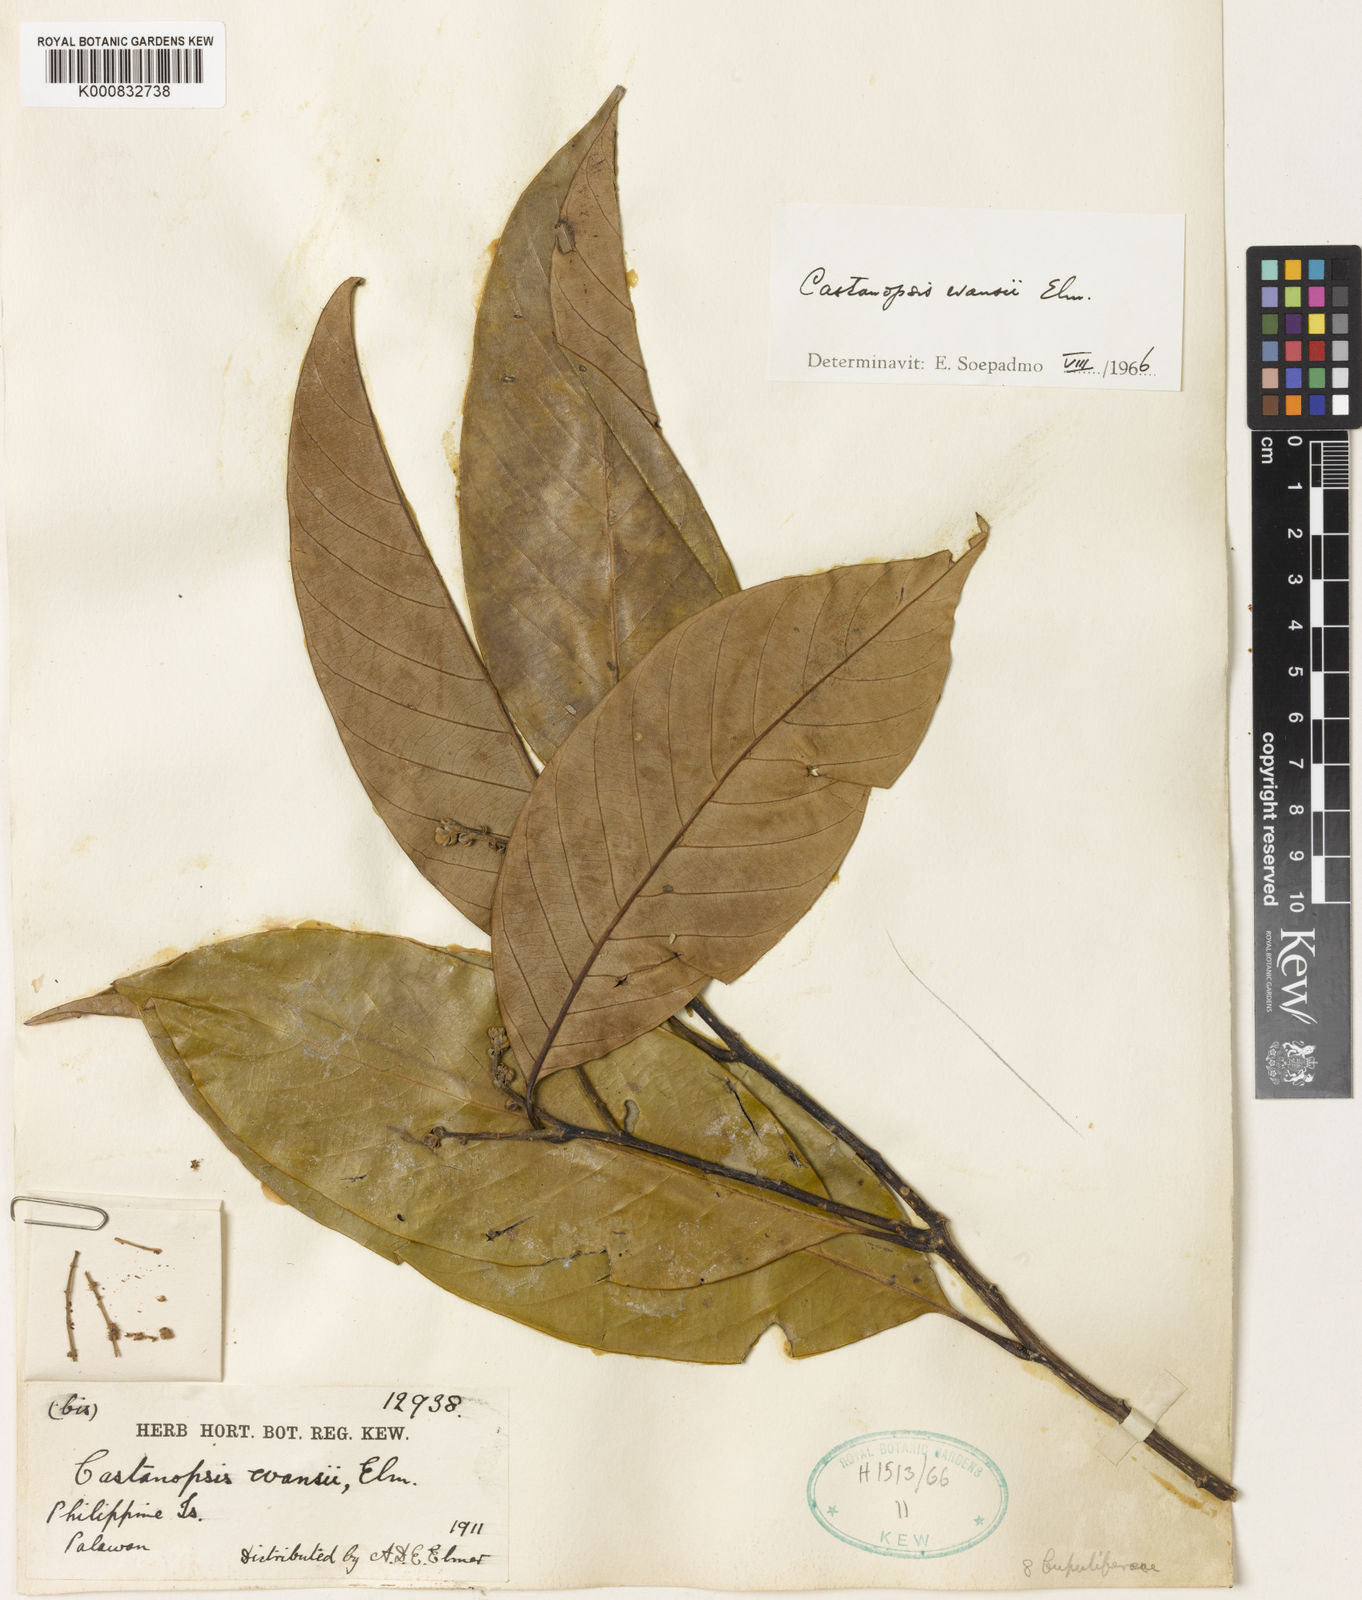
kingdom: Plantae
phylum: Tracheophyta
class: Magnoliopsida
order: Fagales
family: Fagaceae
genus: Castanopsis
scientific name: Castanopsis evansii
